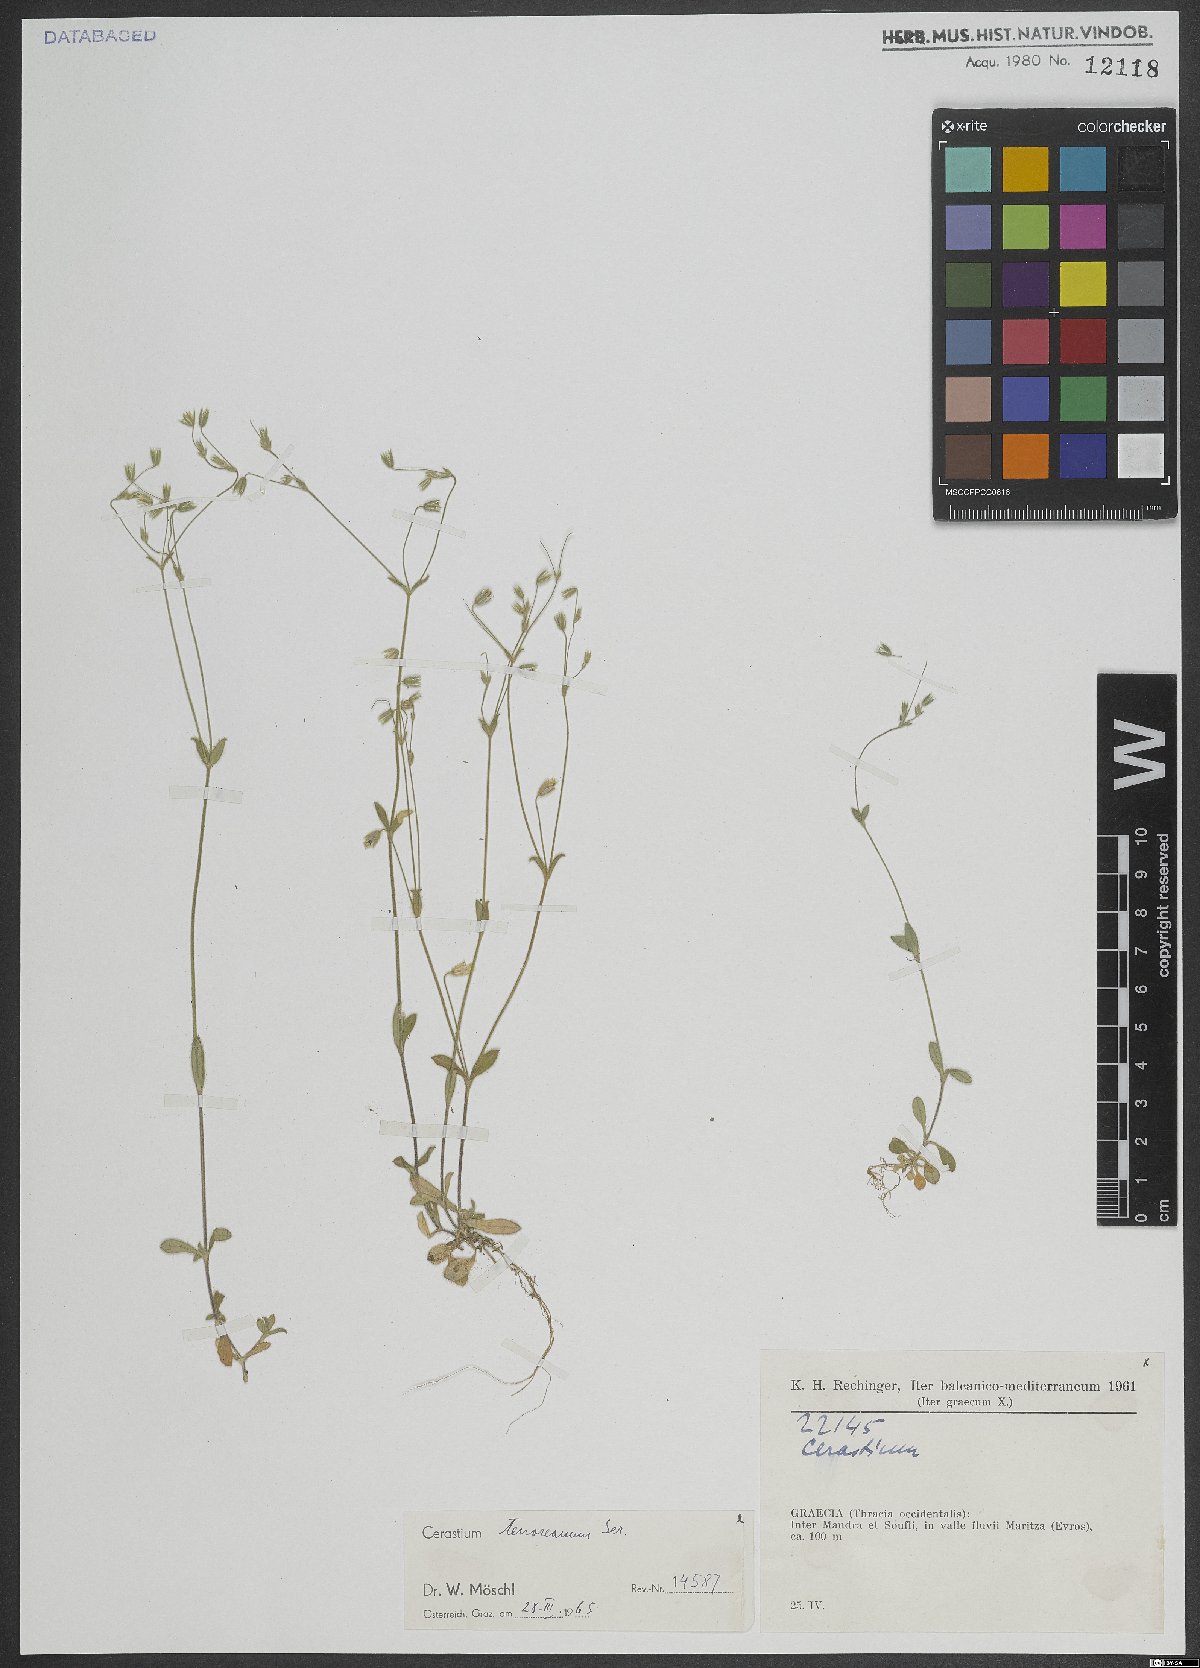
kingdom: Plantae
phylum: Tracheophyta
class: Magnoliopsida
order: Caryophyllales
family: Caryophyllaceae
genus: Cerastium
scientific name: Cerastium tenoreanum
